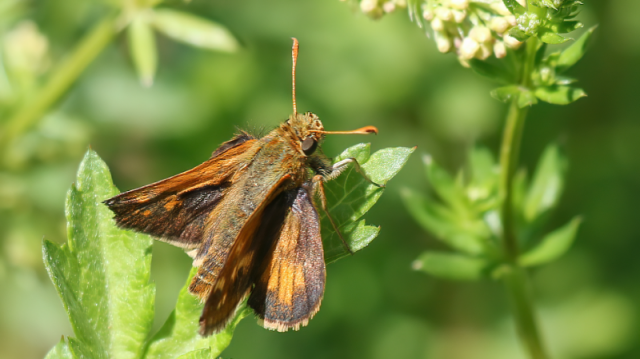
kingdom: Animalia
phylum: Arthropoda
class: Insecta
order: Lepidoptera
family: Hesperiidae
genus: Polites
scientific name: Polites coras
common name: Peck's Skipper
